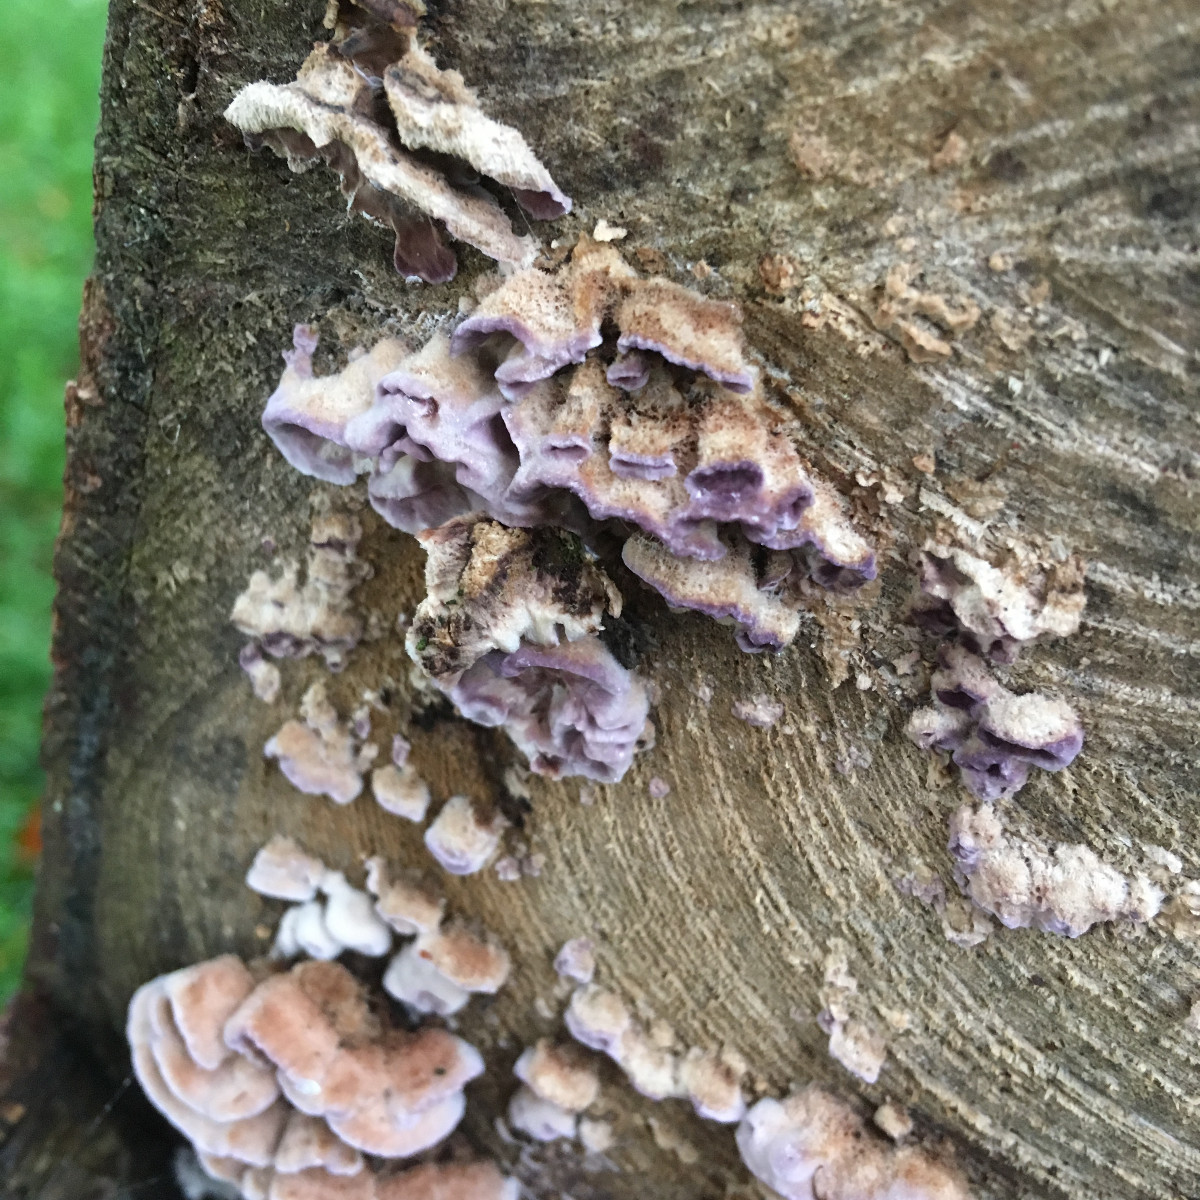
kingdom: Fungi
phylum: Basidiomycota
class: Agaricomycetes
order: Agaricales
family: Cyphellaceae
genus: Chondrostereum
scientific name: Chondrostereum purpureum
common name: purpurlædersvamp
